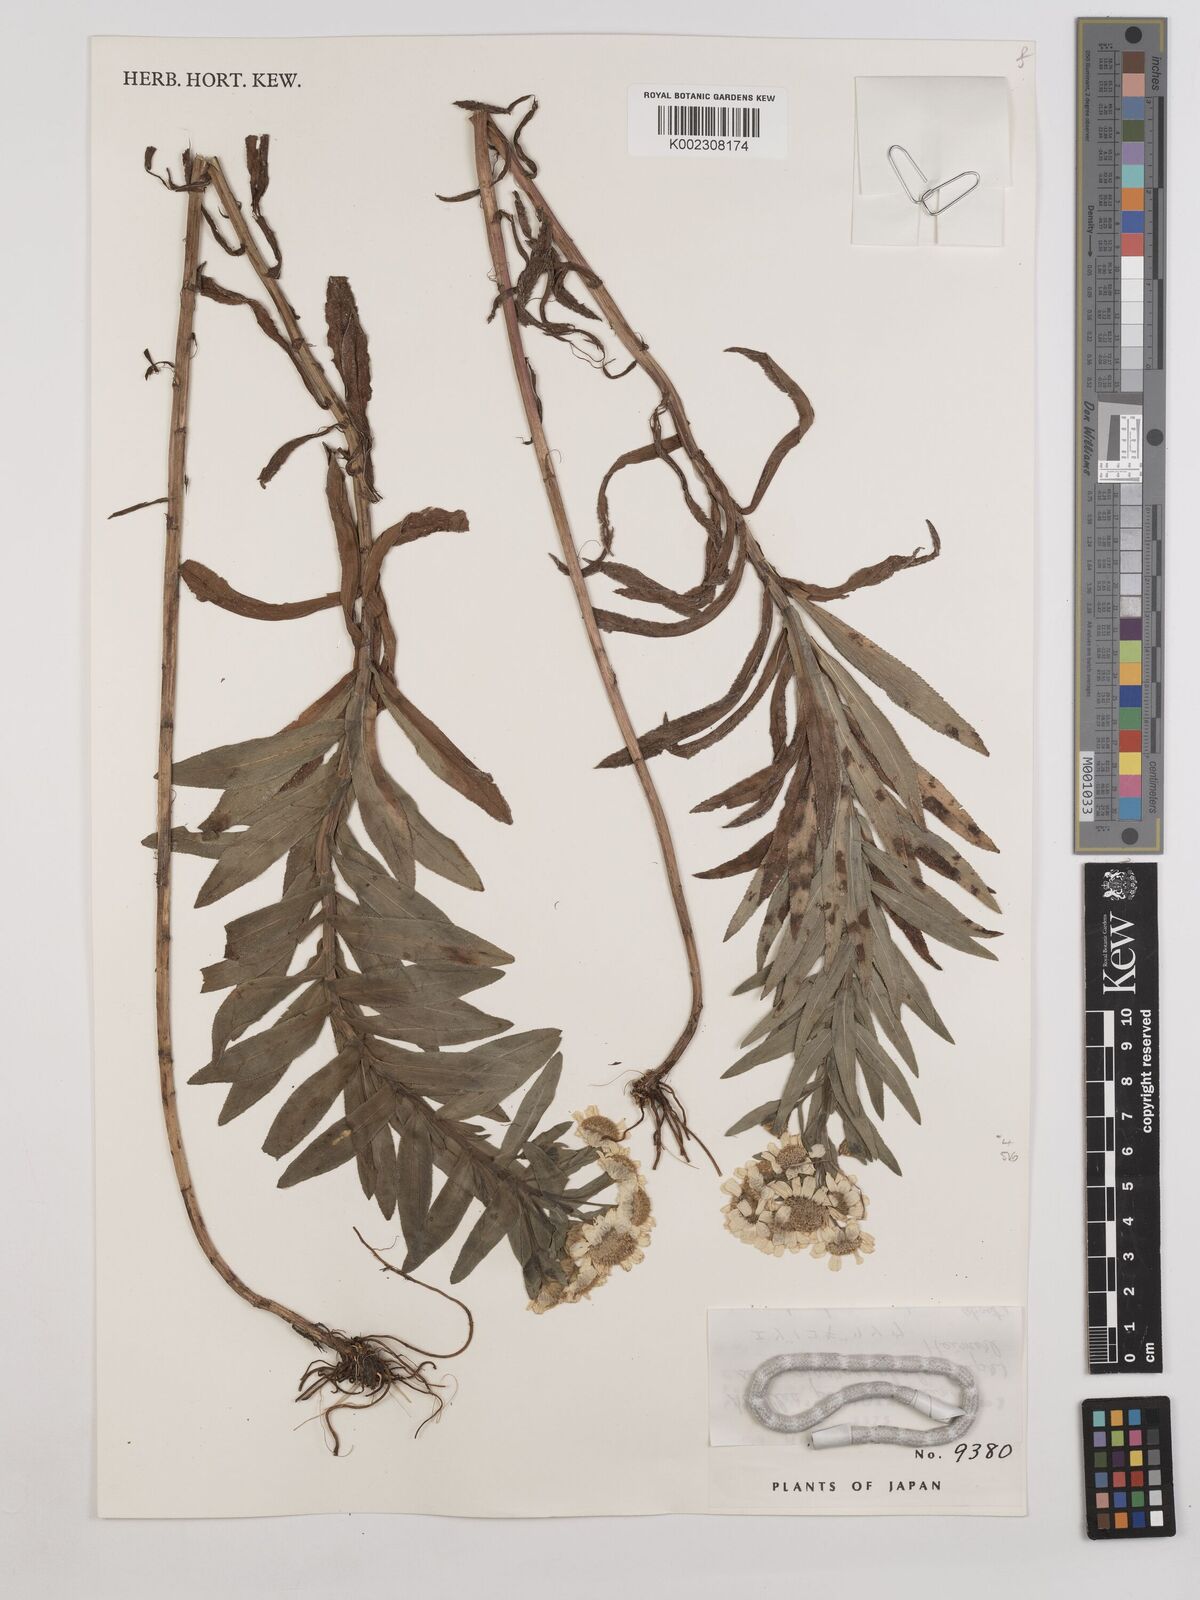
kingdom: Plantae
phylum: Tracheophyta
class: Magnoliopsida
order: Asterales
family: Asteraceae
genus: Achillea
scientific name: Achillea ptarmicoides
